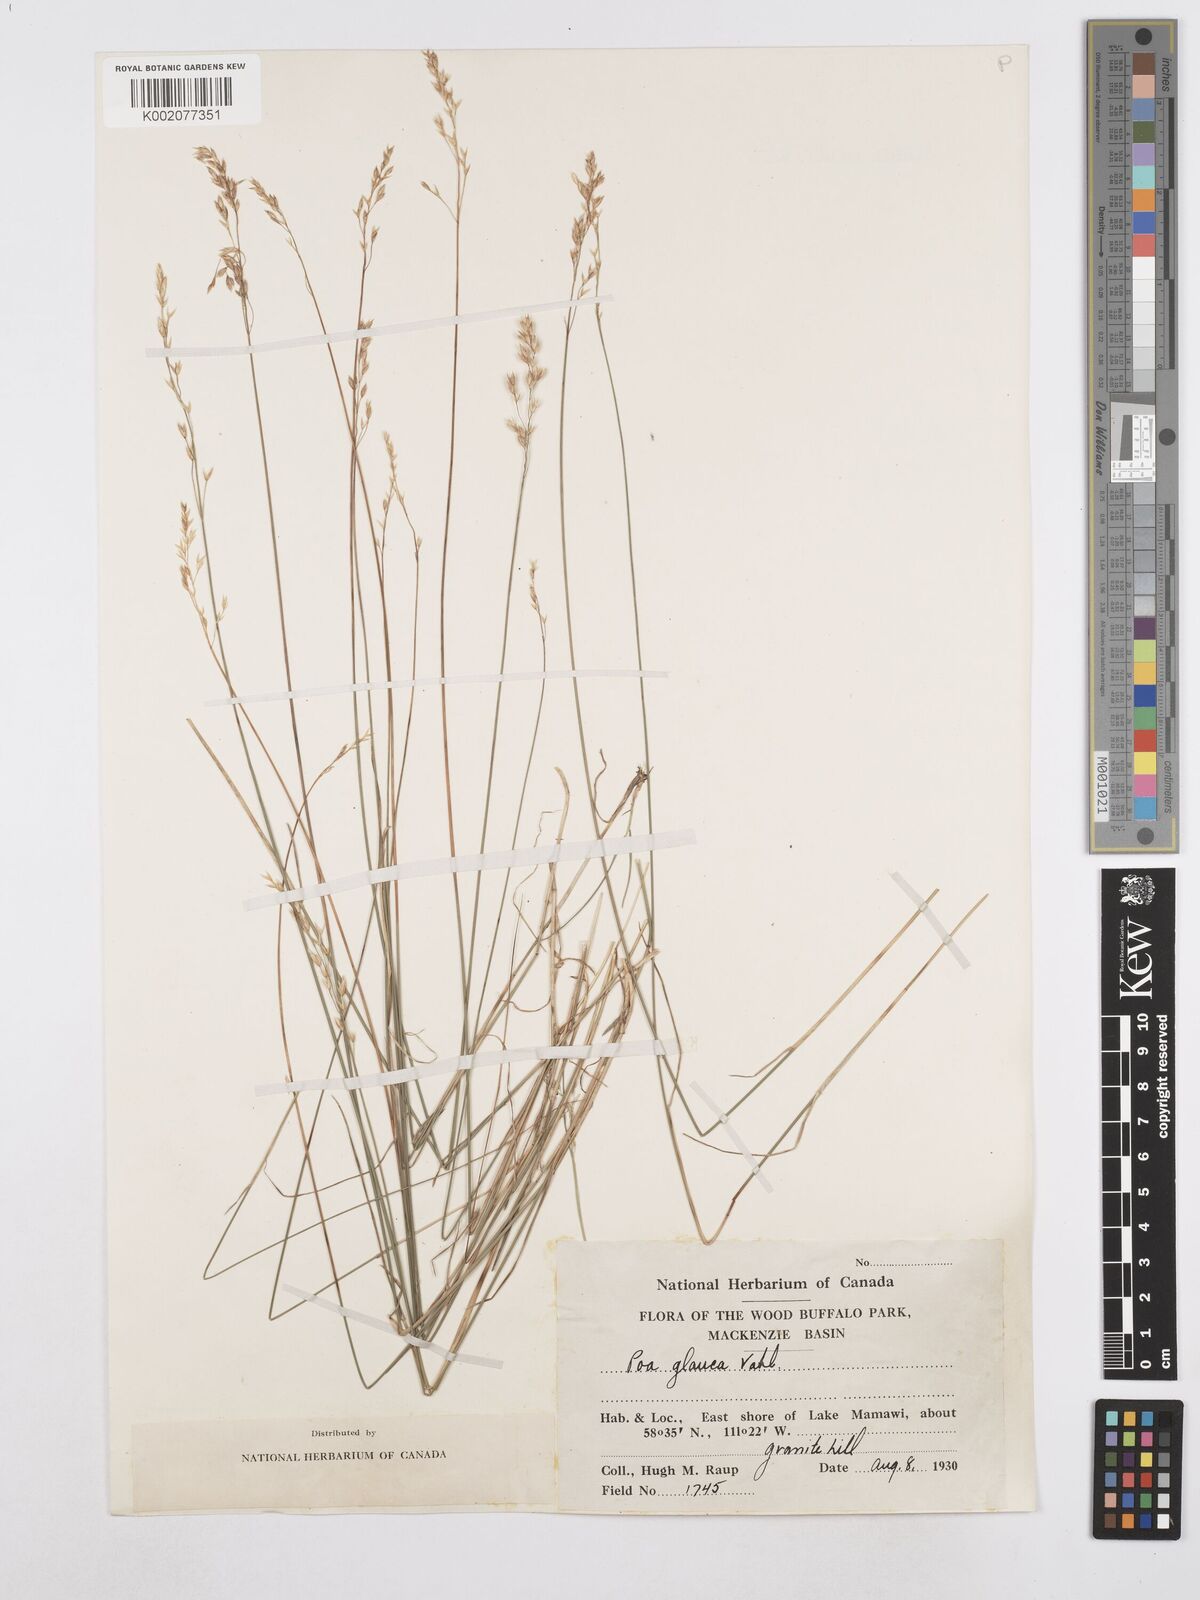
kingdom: Plantae
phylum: Tracheophyta
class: Liliopsida
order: Poales
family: Poaceae
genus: Poa
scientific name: Poa glauca
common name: Glaucous bluegrass
